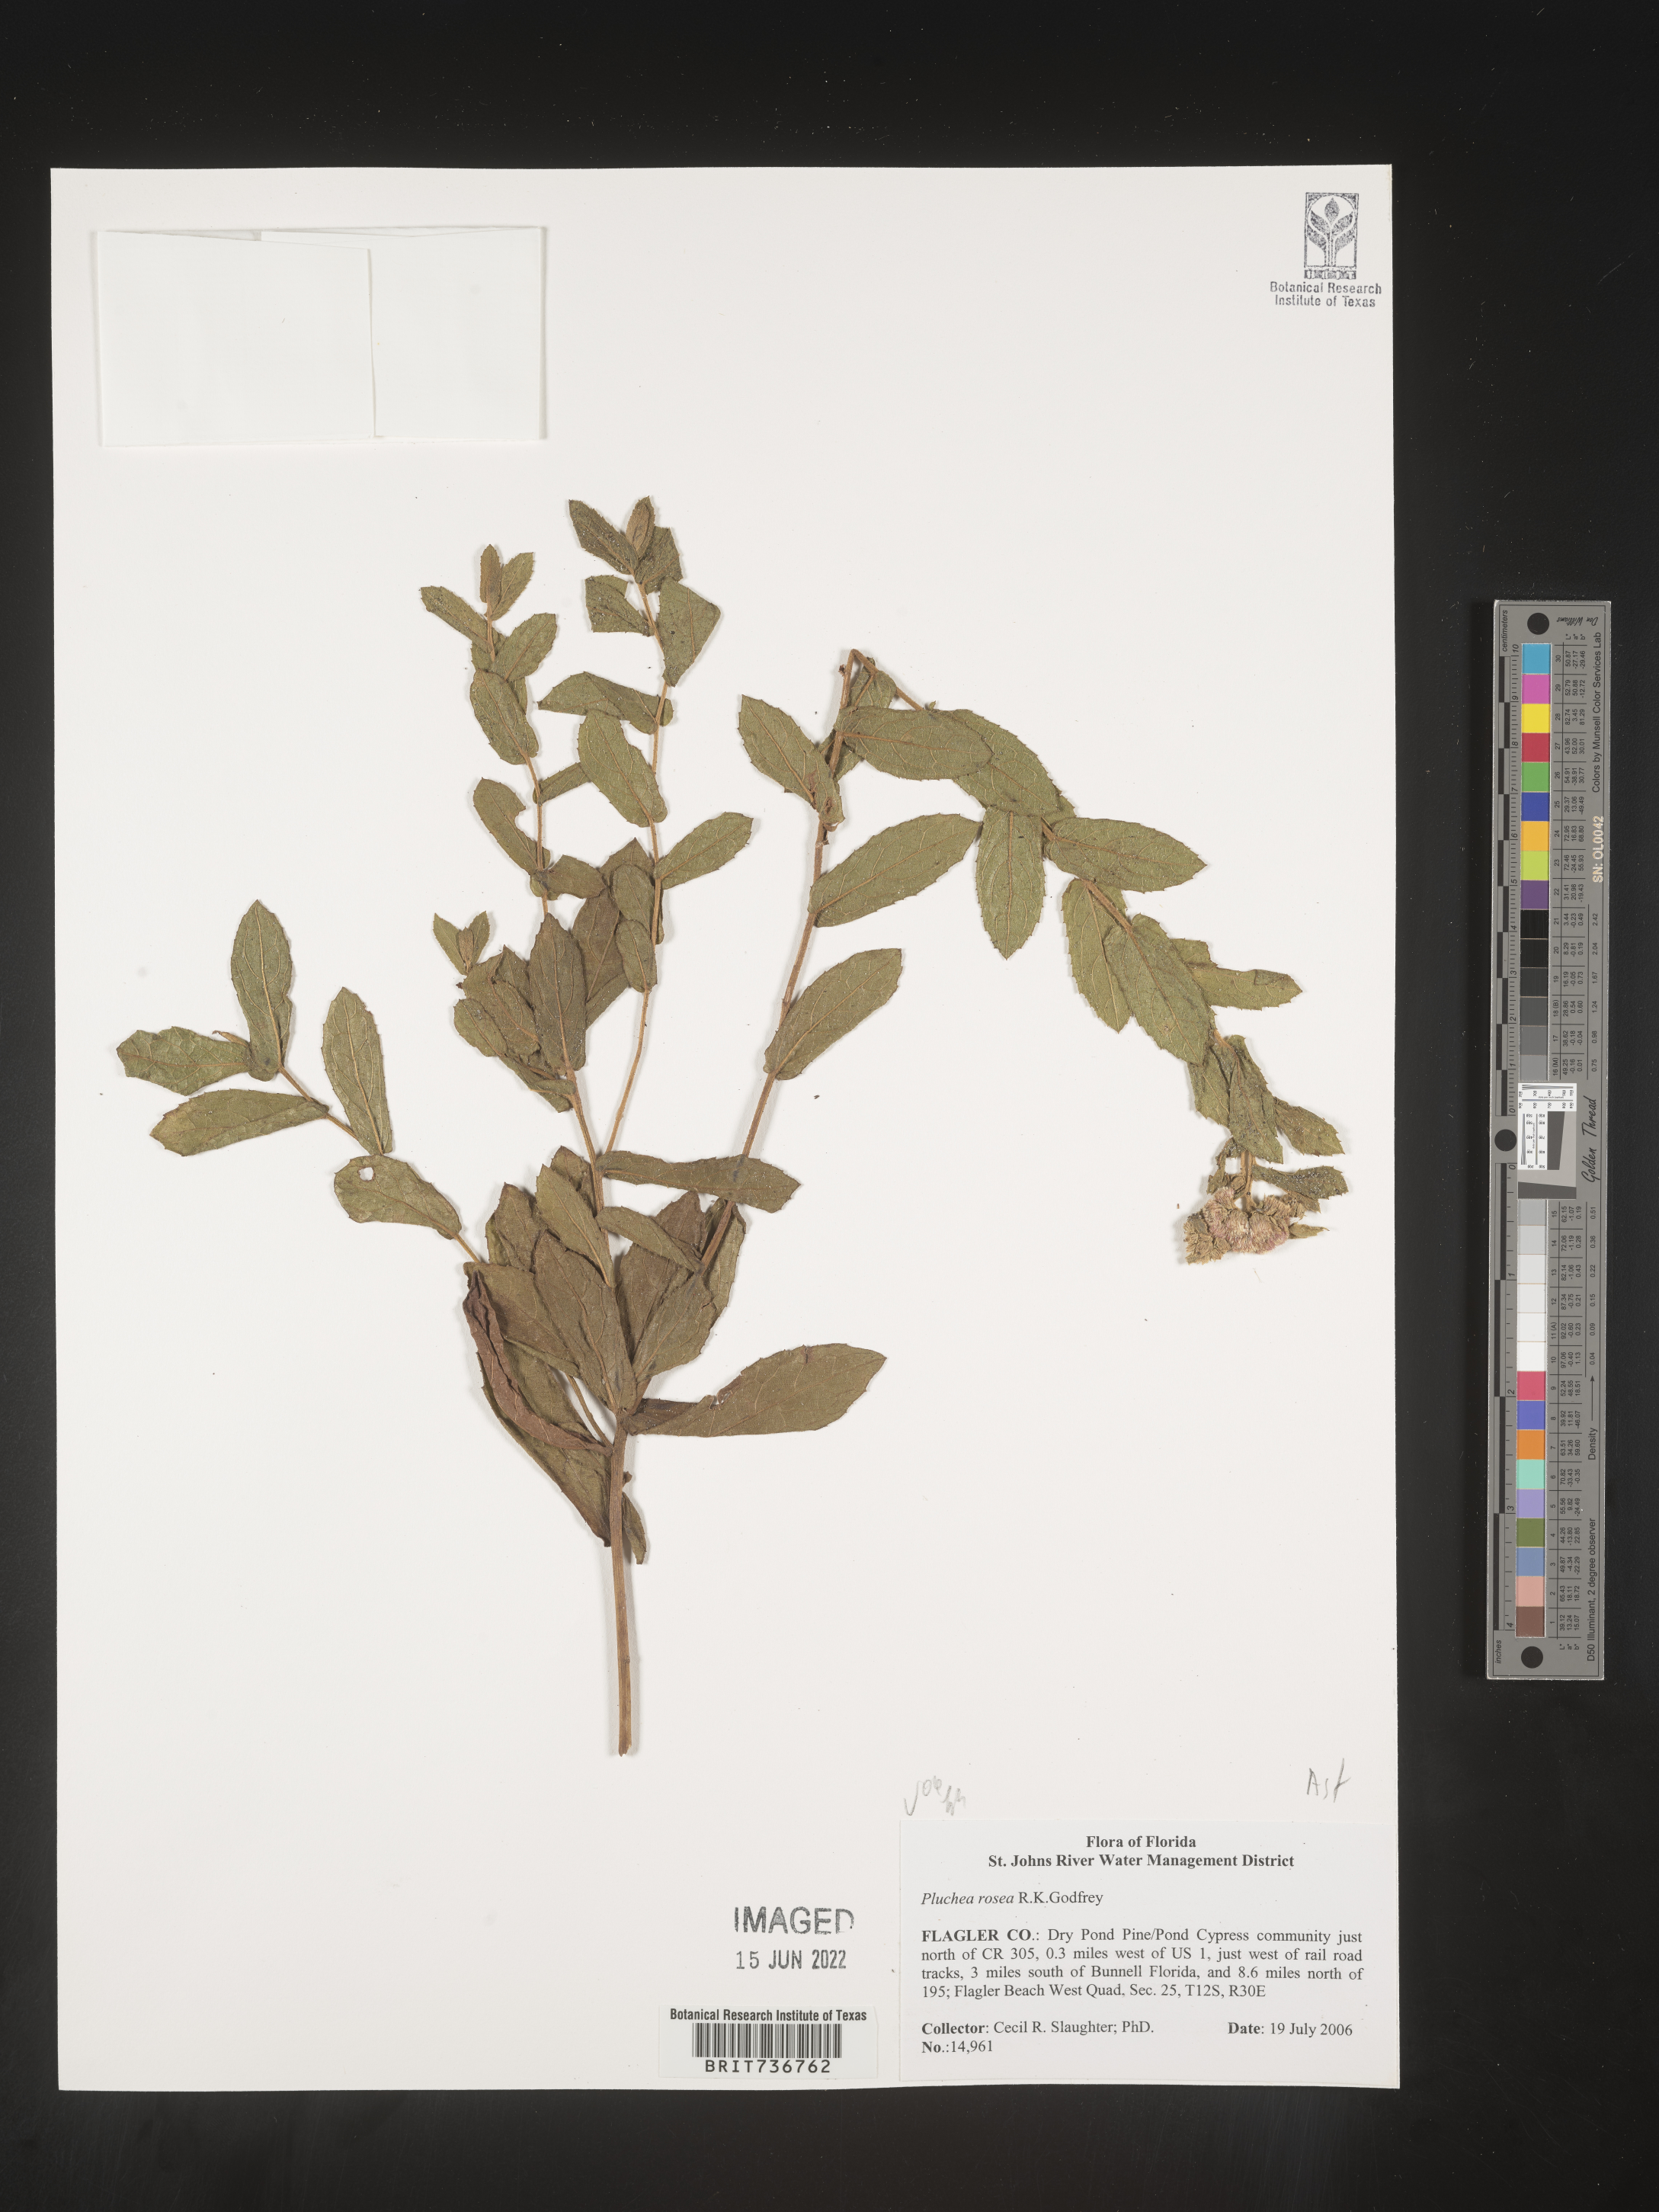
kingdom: Plantae
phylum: Tracheophyta
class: Magnoliopsida
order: Asterales
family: Asteraceae
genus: Pluchea
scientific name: Pluchea baccharis
